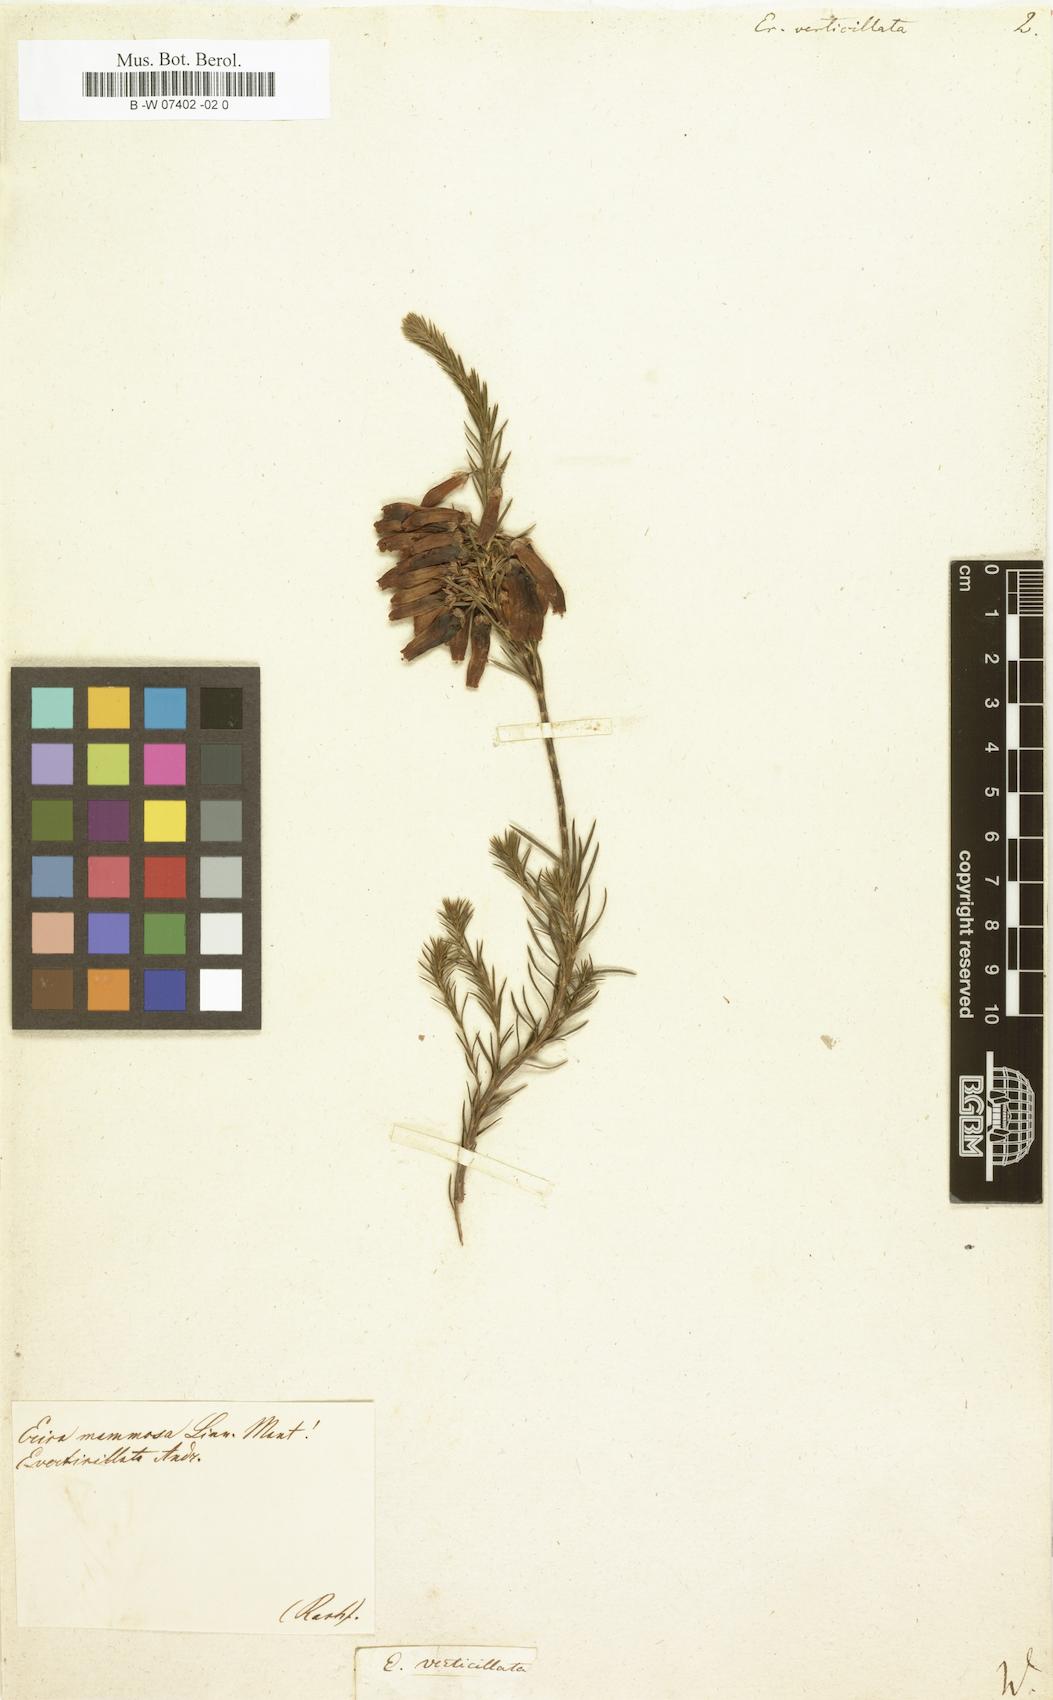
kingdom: Plantae
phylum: Tracheophyta
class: Magnoliopsida
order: Ericales
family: Ericaceae
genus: Erica
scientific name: Erica verticillata
